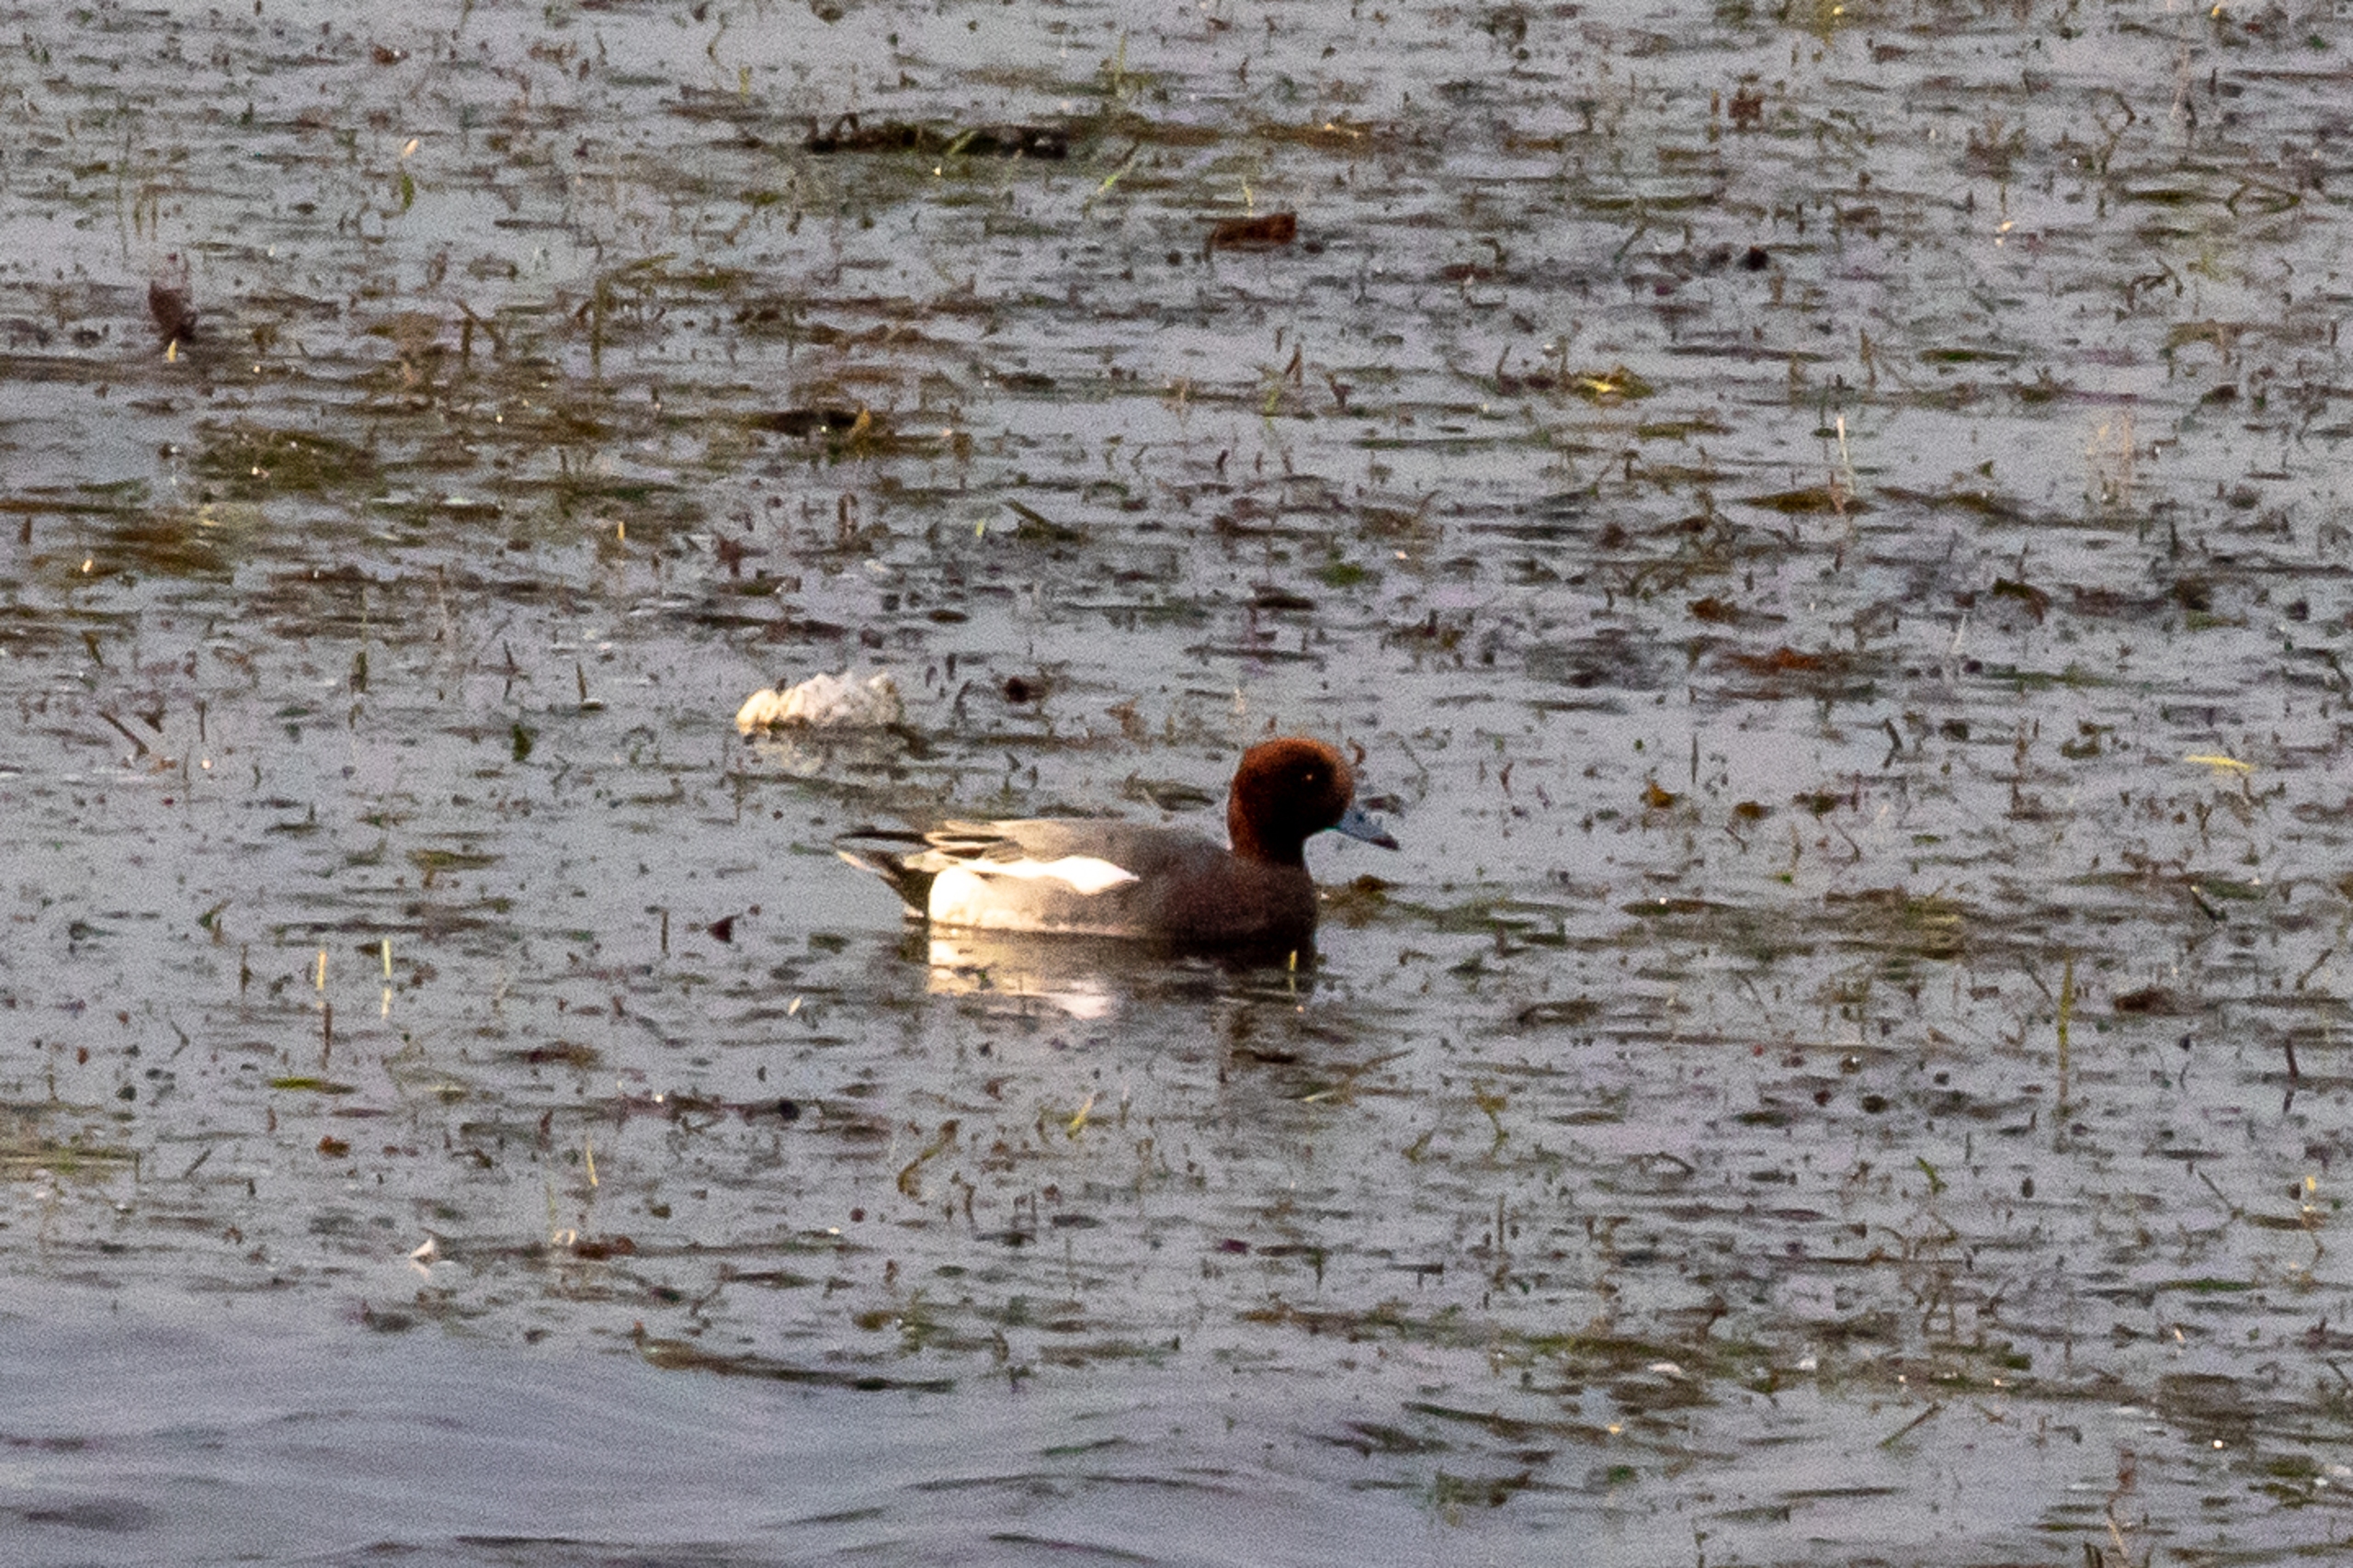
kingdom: Animalia
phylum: Chordata
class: Aves
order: Anseriformes
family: Anatidae
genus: Mareca
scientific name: Mareca penelope
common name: Pibeand
